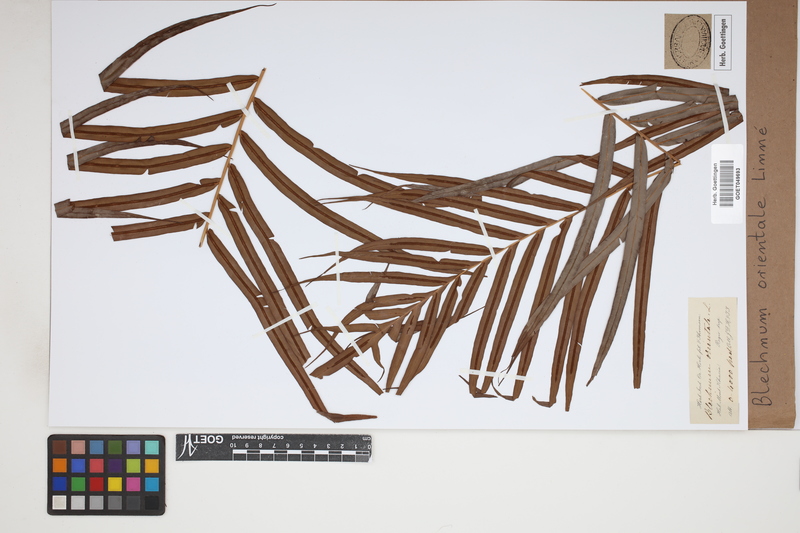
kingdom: Plantae
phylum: Tracheophyta
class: Polypodiopsida
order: Polypodiales
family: Blechnaceae
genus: Blechnopsis
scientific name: Blechnopsis orientalis
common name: Oriental blechnum
